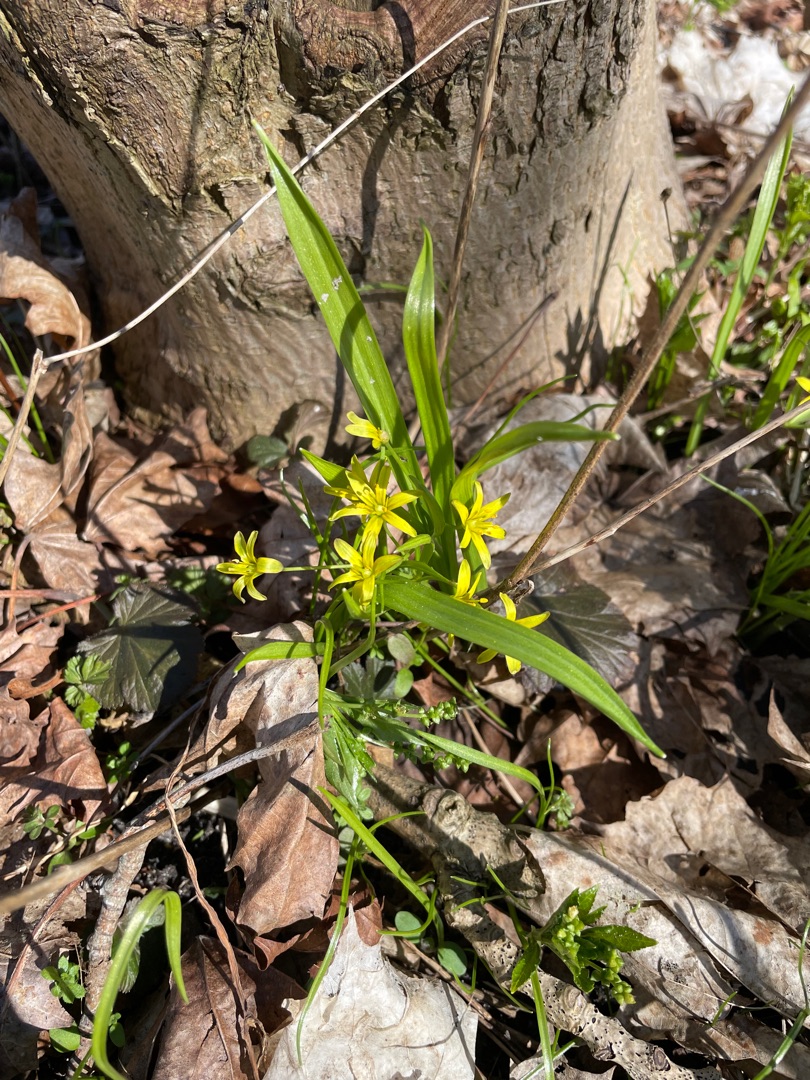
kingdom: Plantae
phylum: Tracheophyta
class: Liliopsida
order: Liliales
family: Liliaceae
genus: Gagea
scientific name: Gagea lutea
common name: Almindelig guldstjerne
